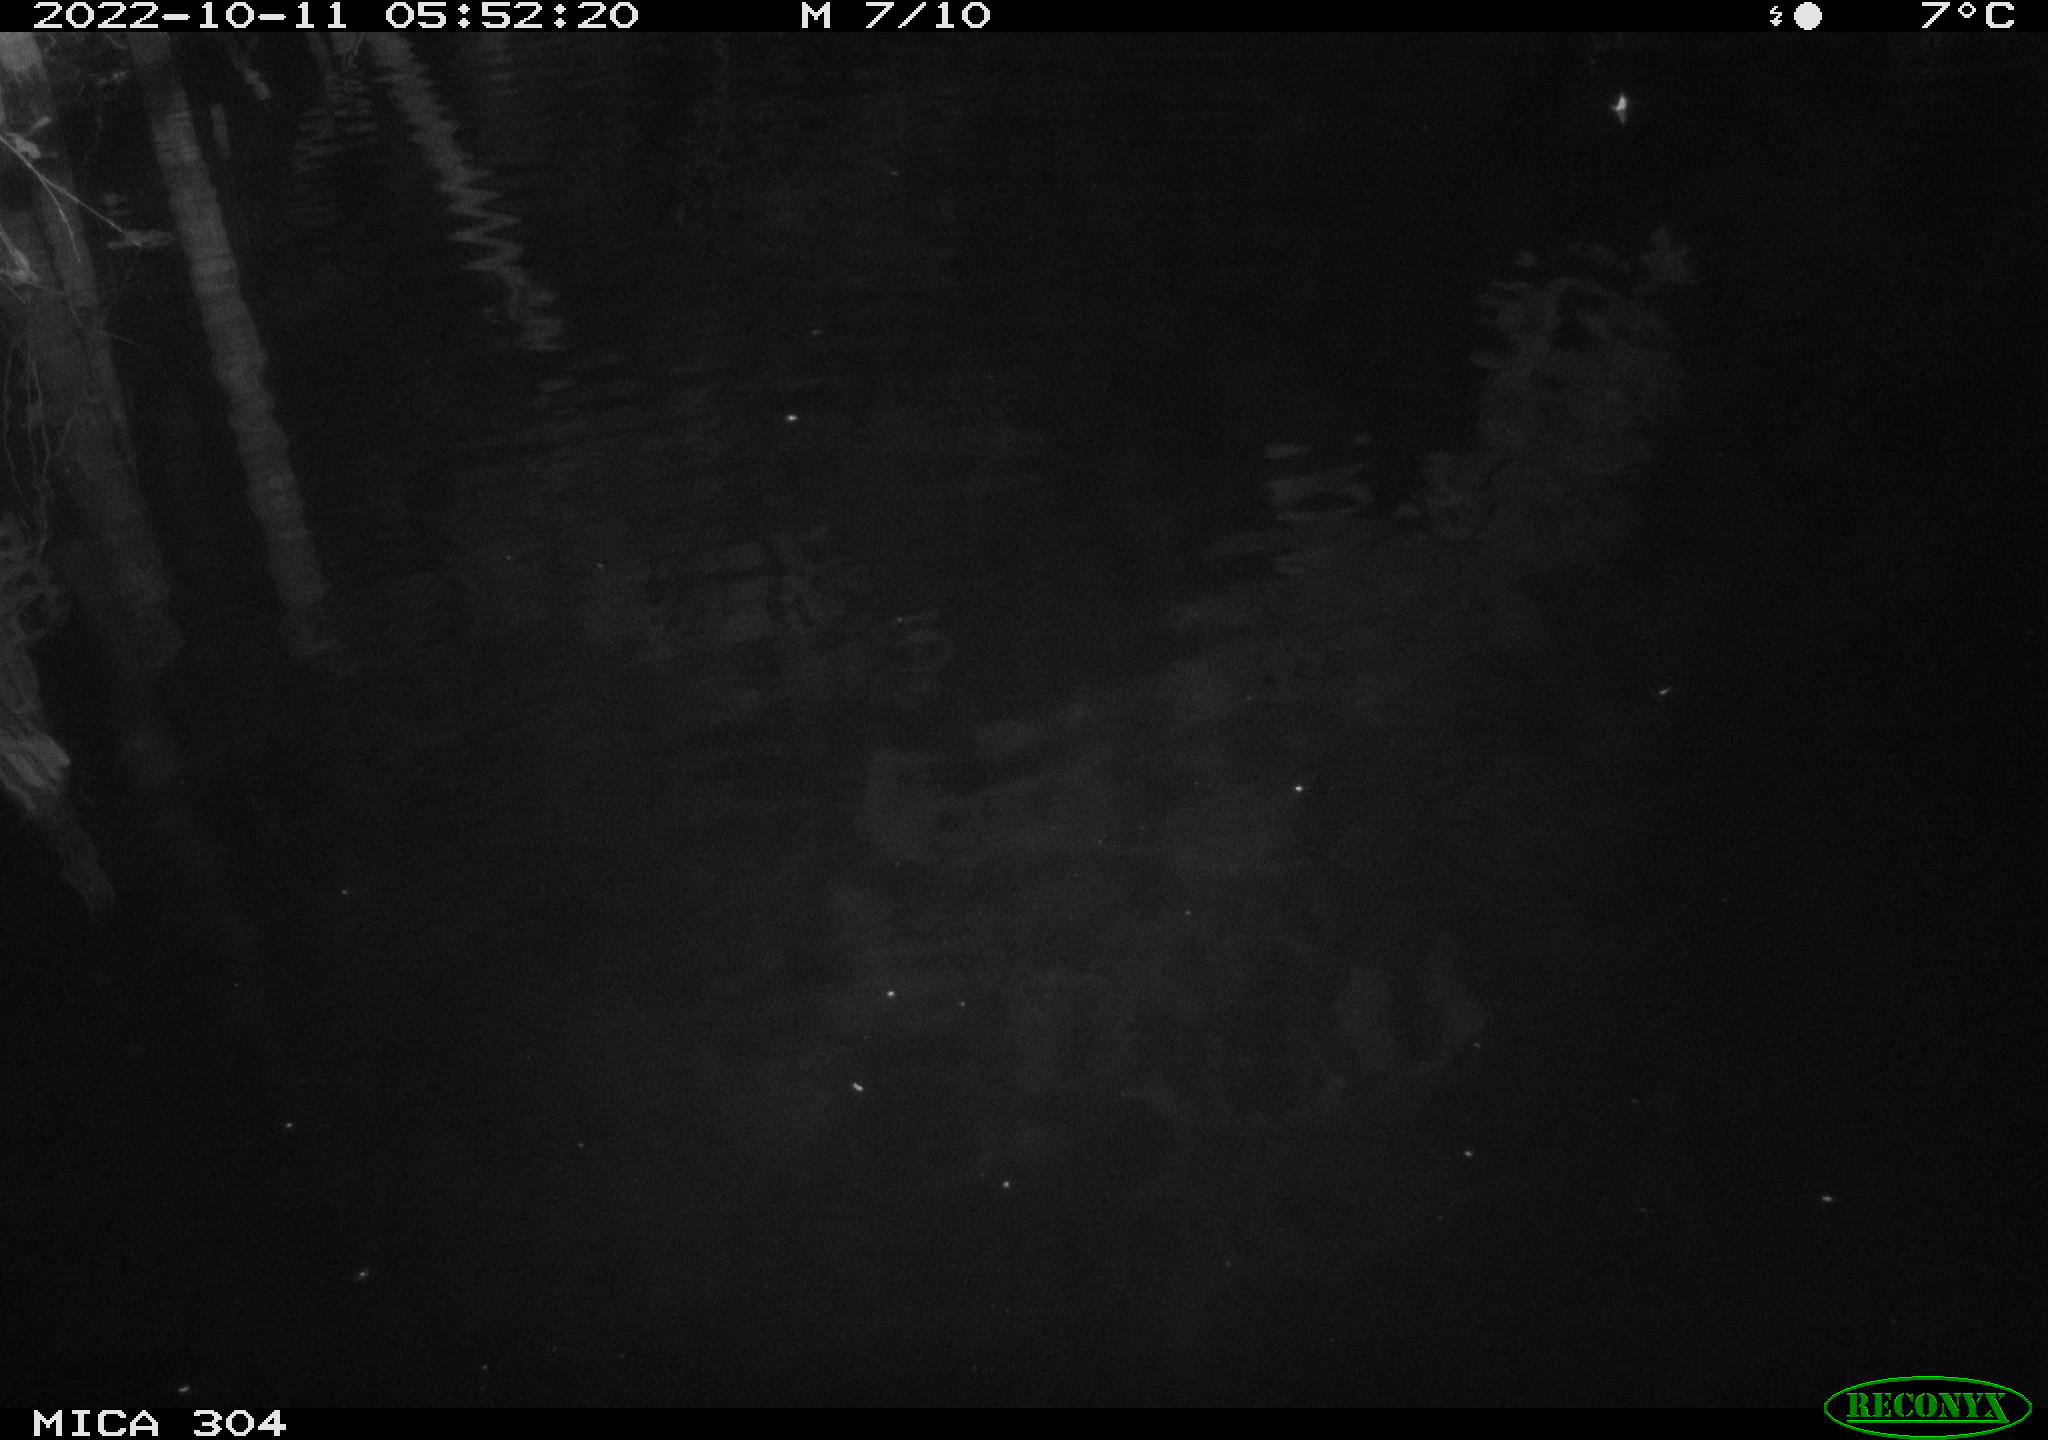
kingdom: Animalia
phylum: Chordata
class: Mammalia
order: Rodentia
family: Cricetidae
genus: Ondatra
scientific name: Ondatra zibethicus
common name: Muskrat
